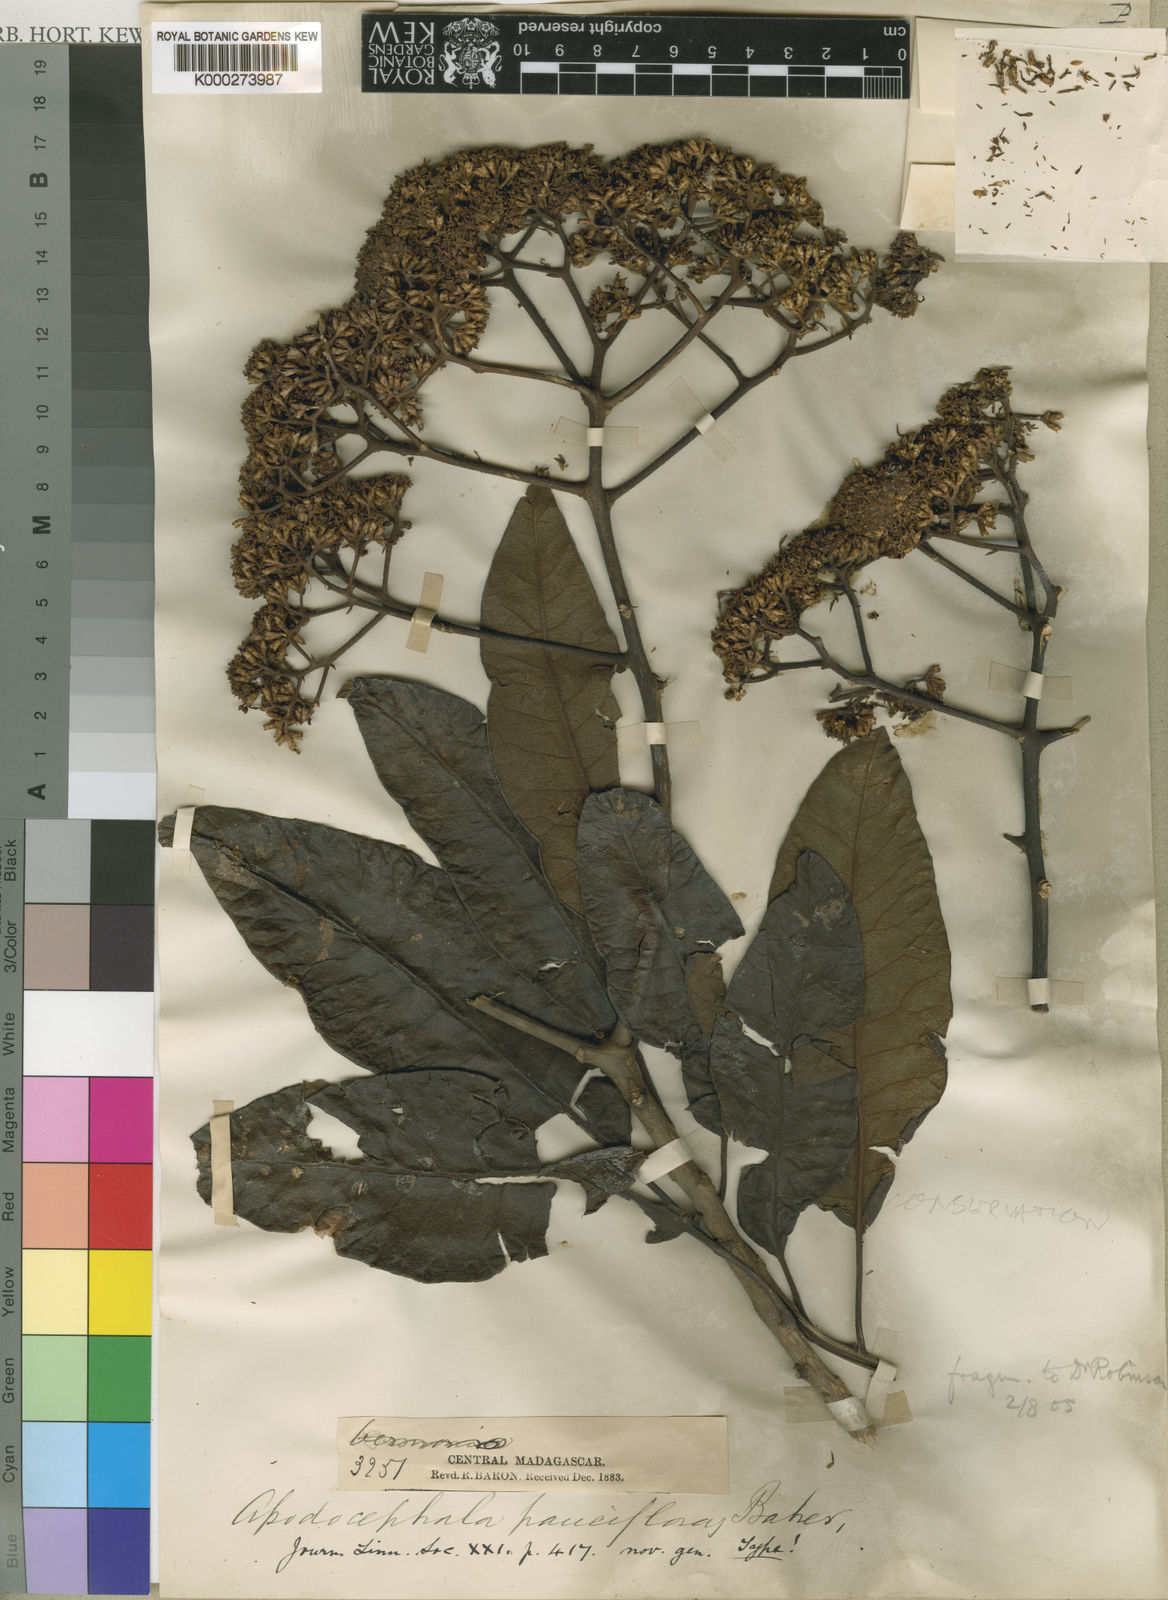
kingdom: Plantae
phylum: Tracheophyta
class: Magnoliopsida
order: Asterales
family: Asteraceae
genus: Apodocephala
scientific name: Apodocephala pauciflora
